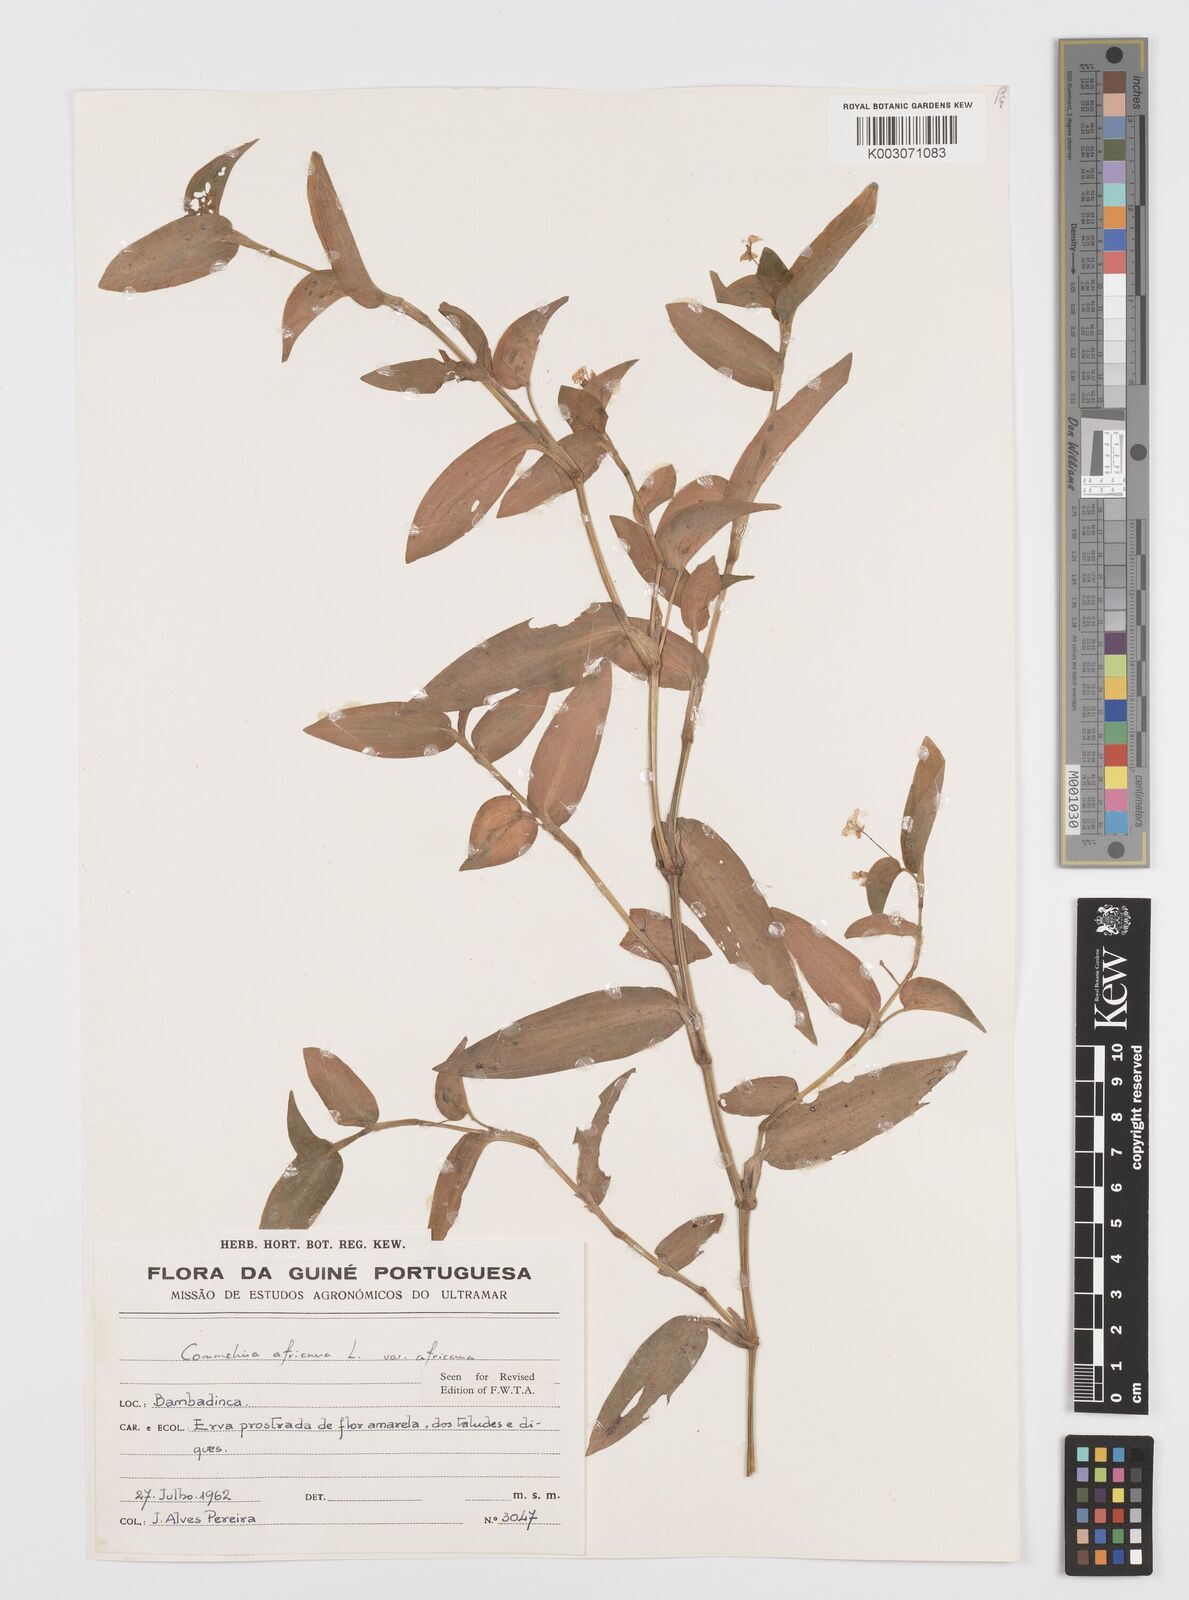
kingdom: Plantae
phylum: Tracheophyta
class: Liliopsida
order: Commelinales
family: Commelinaceae
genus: Commelina
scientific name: Commelina africana
